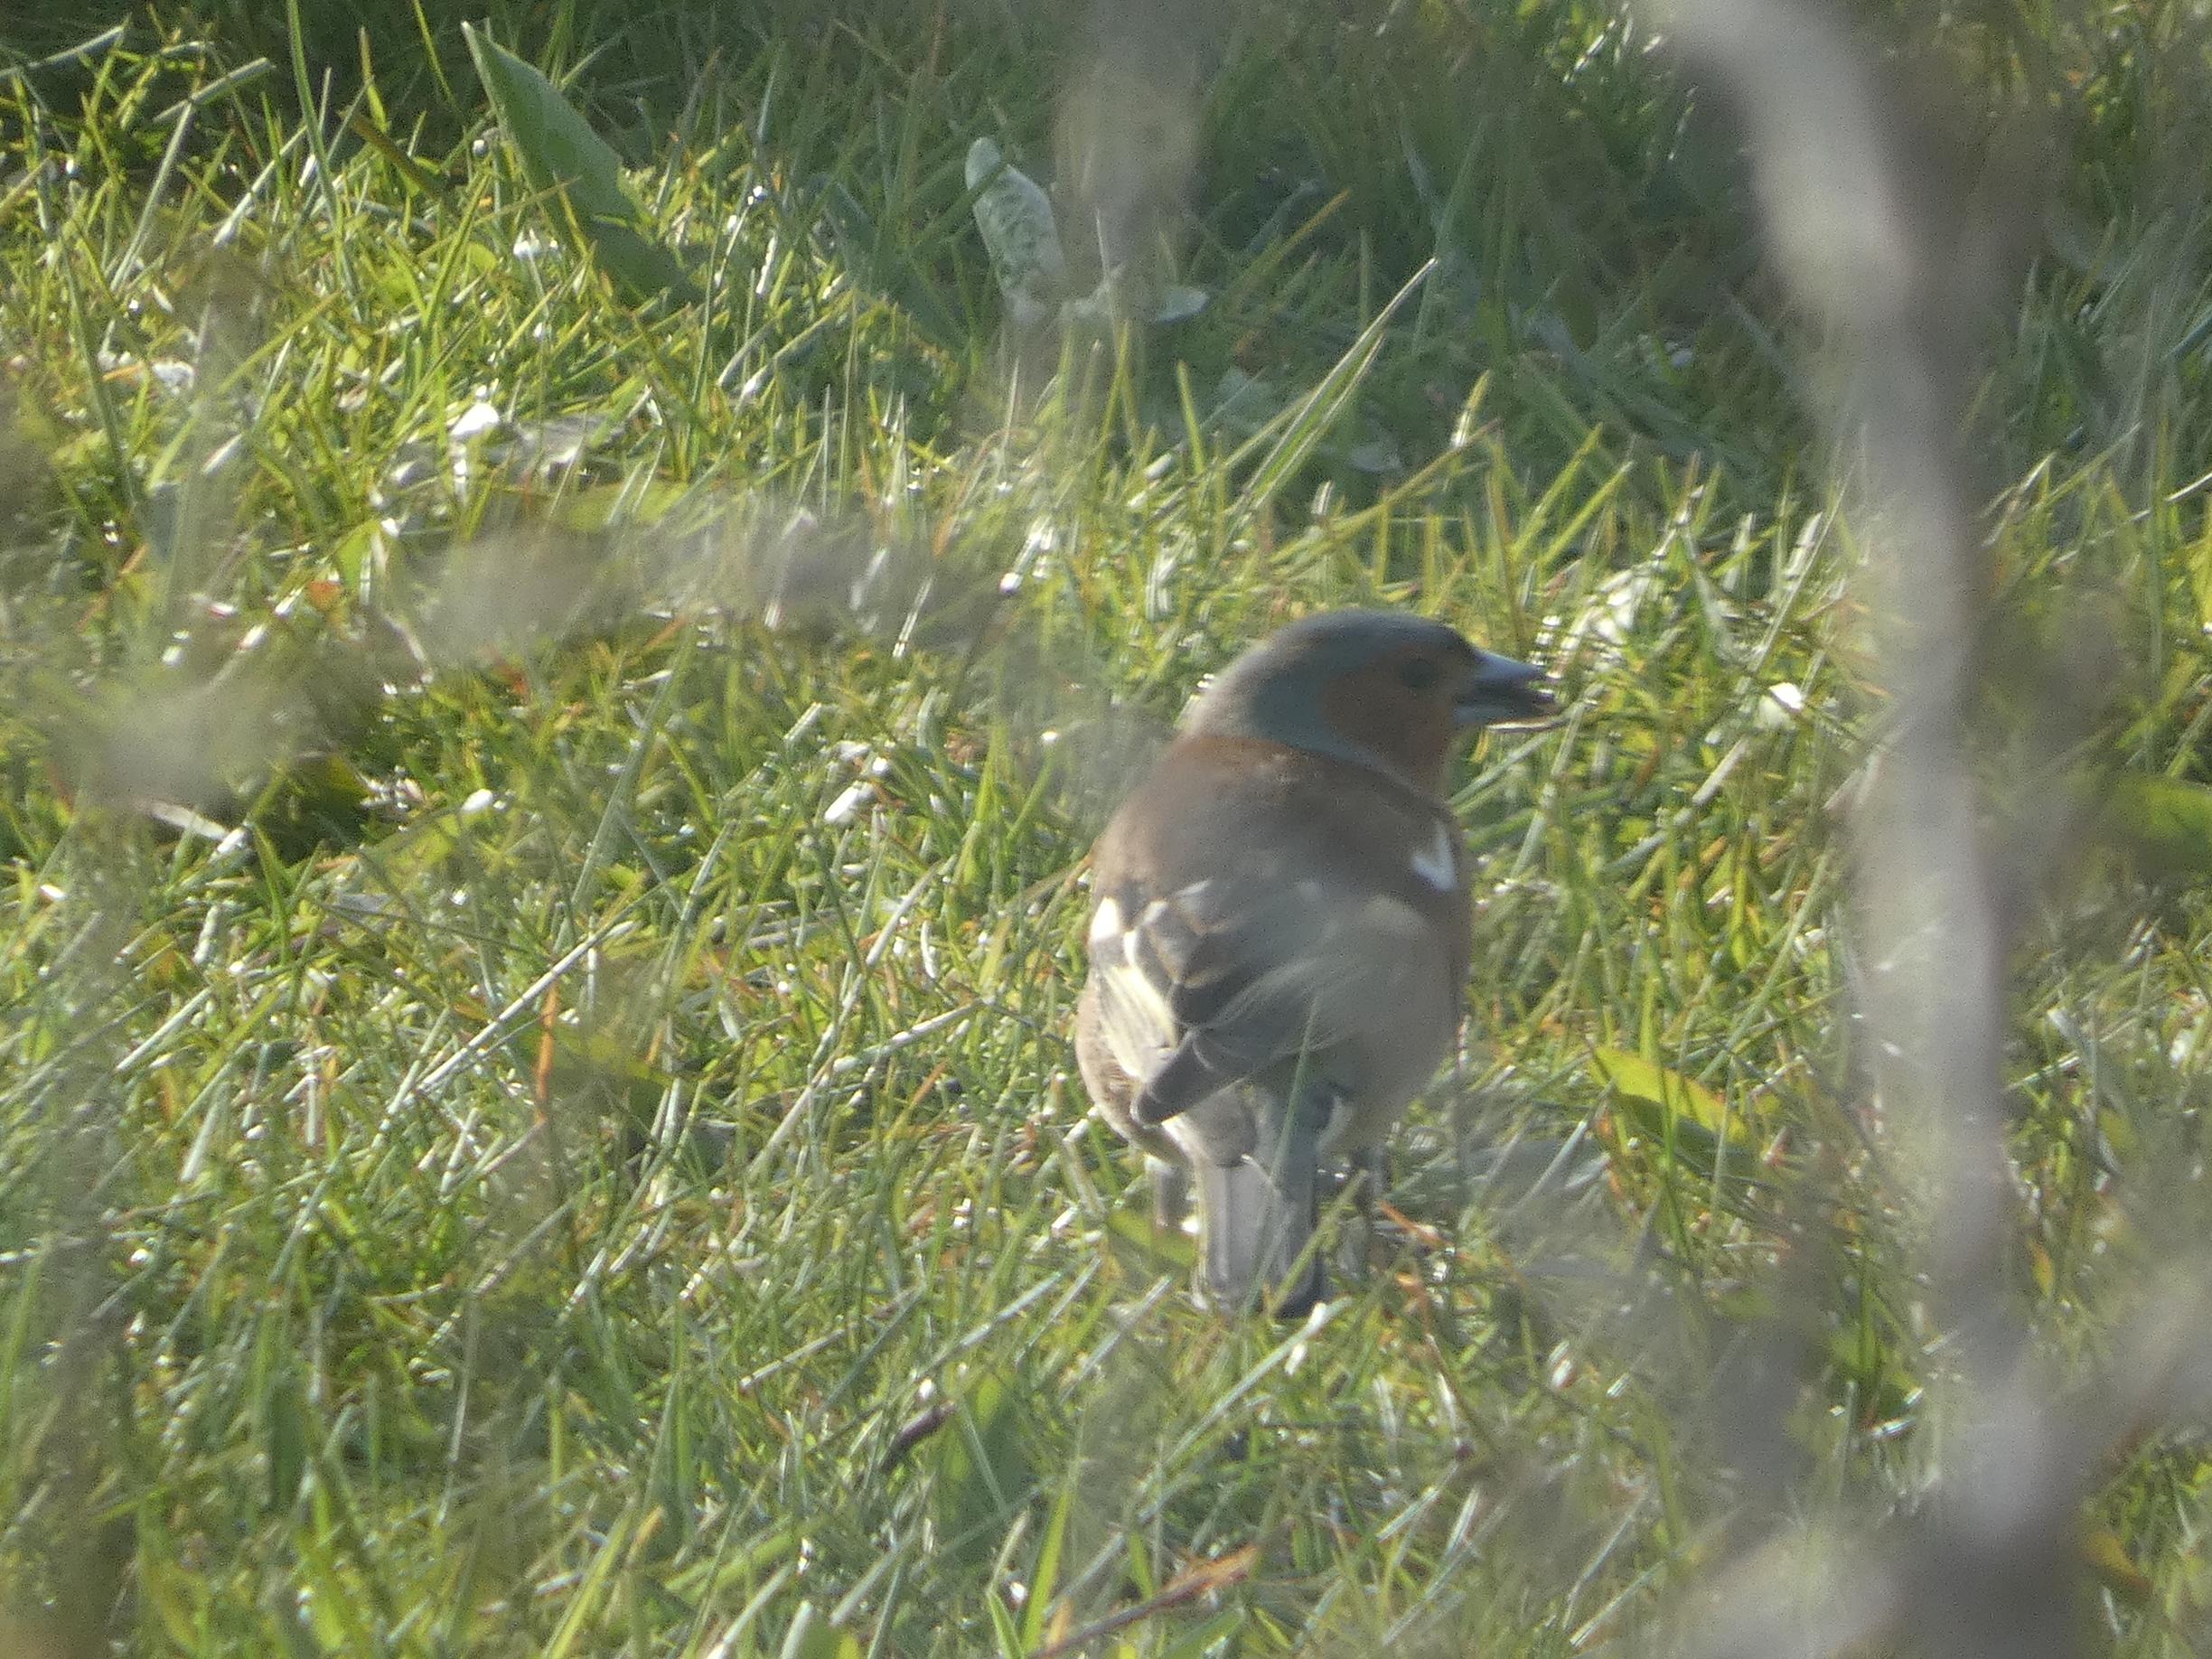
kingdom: Animalia
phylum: Chordata
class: Aves
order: Passeriformes
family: Fringillidae
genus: Fringilla
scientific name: Fringilla coelebs
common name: Bogfinke
